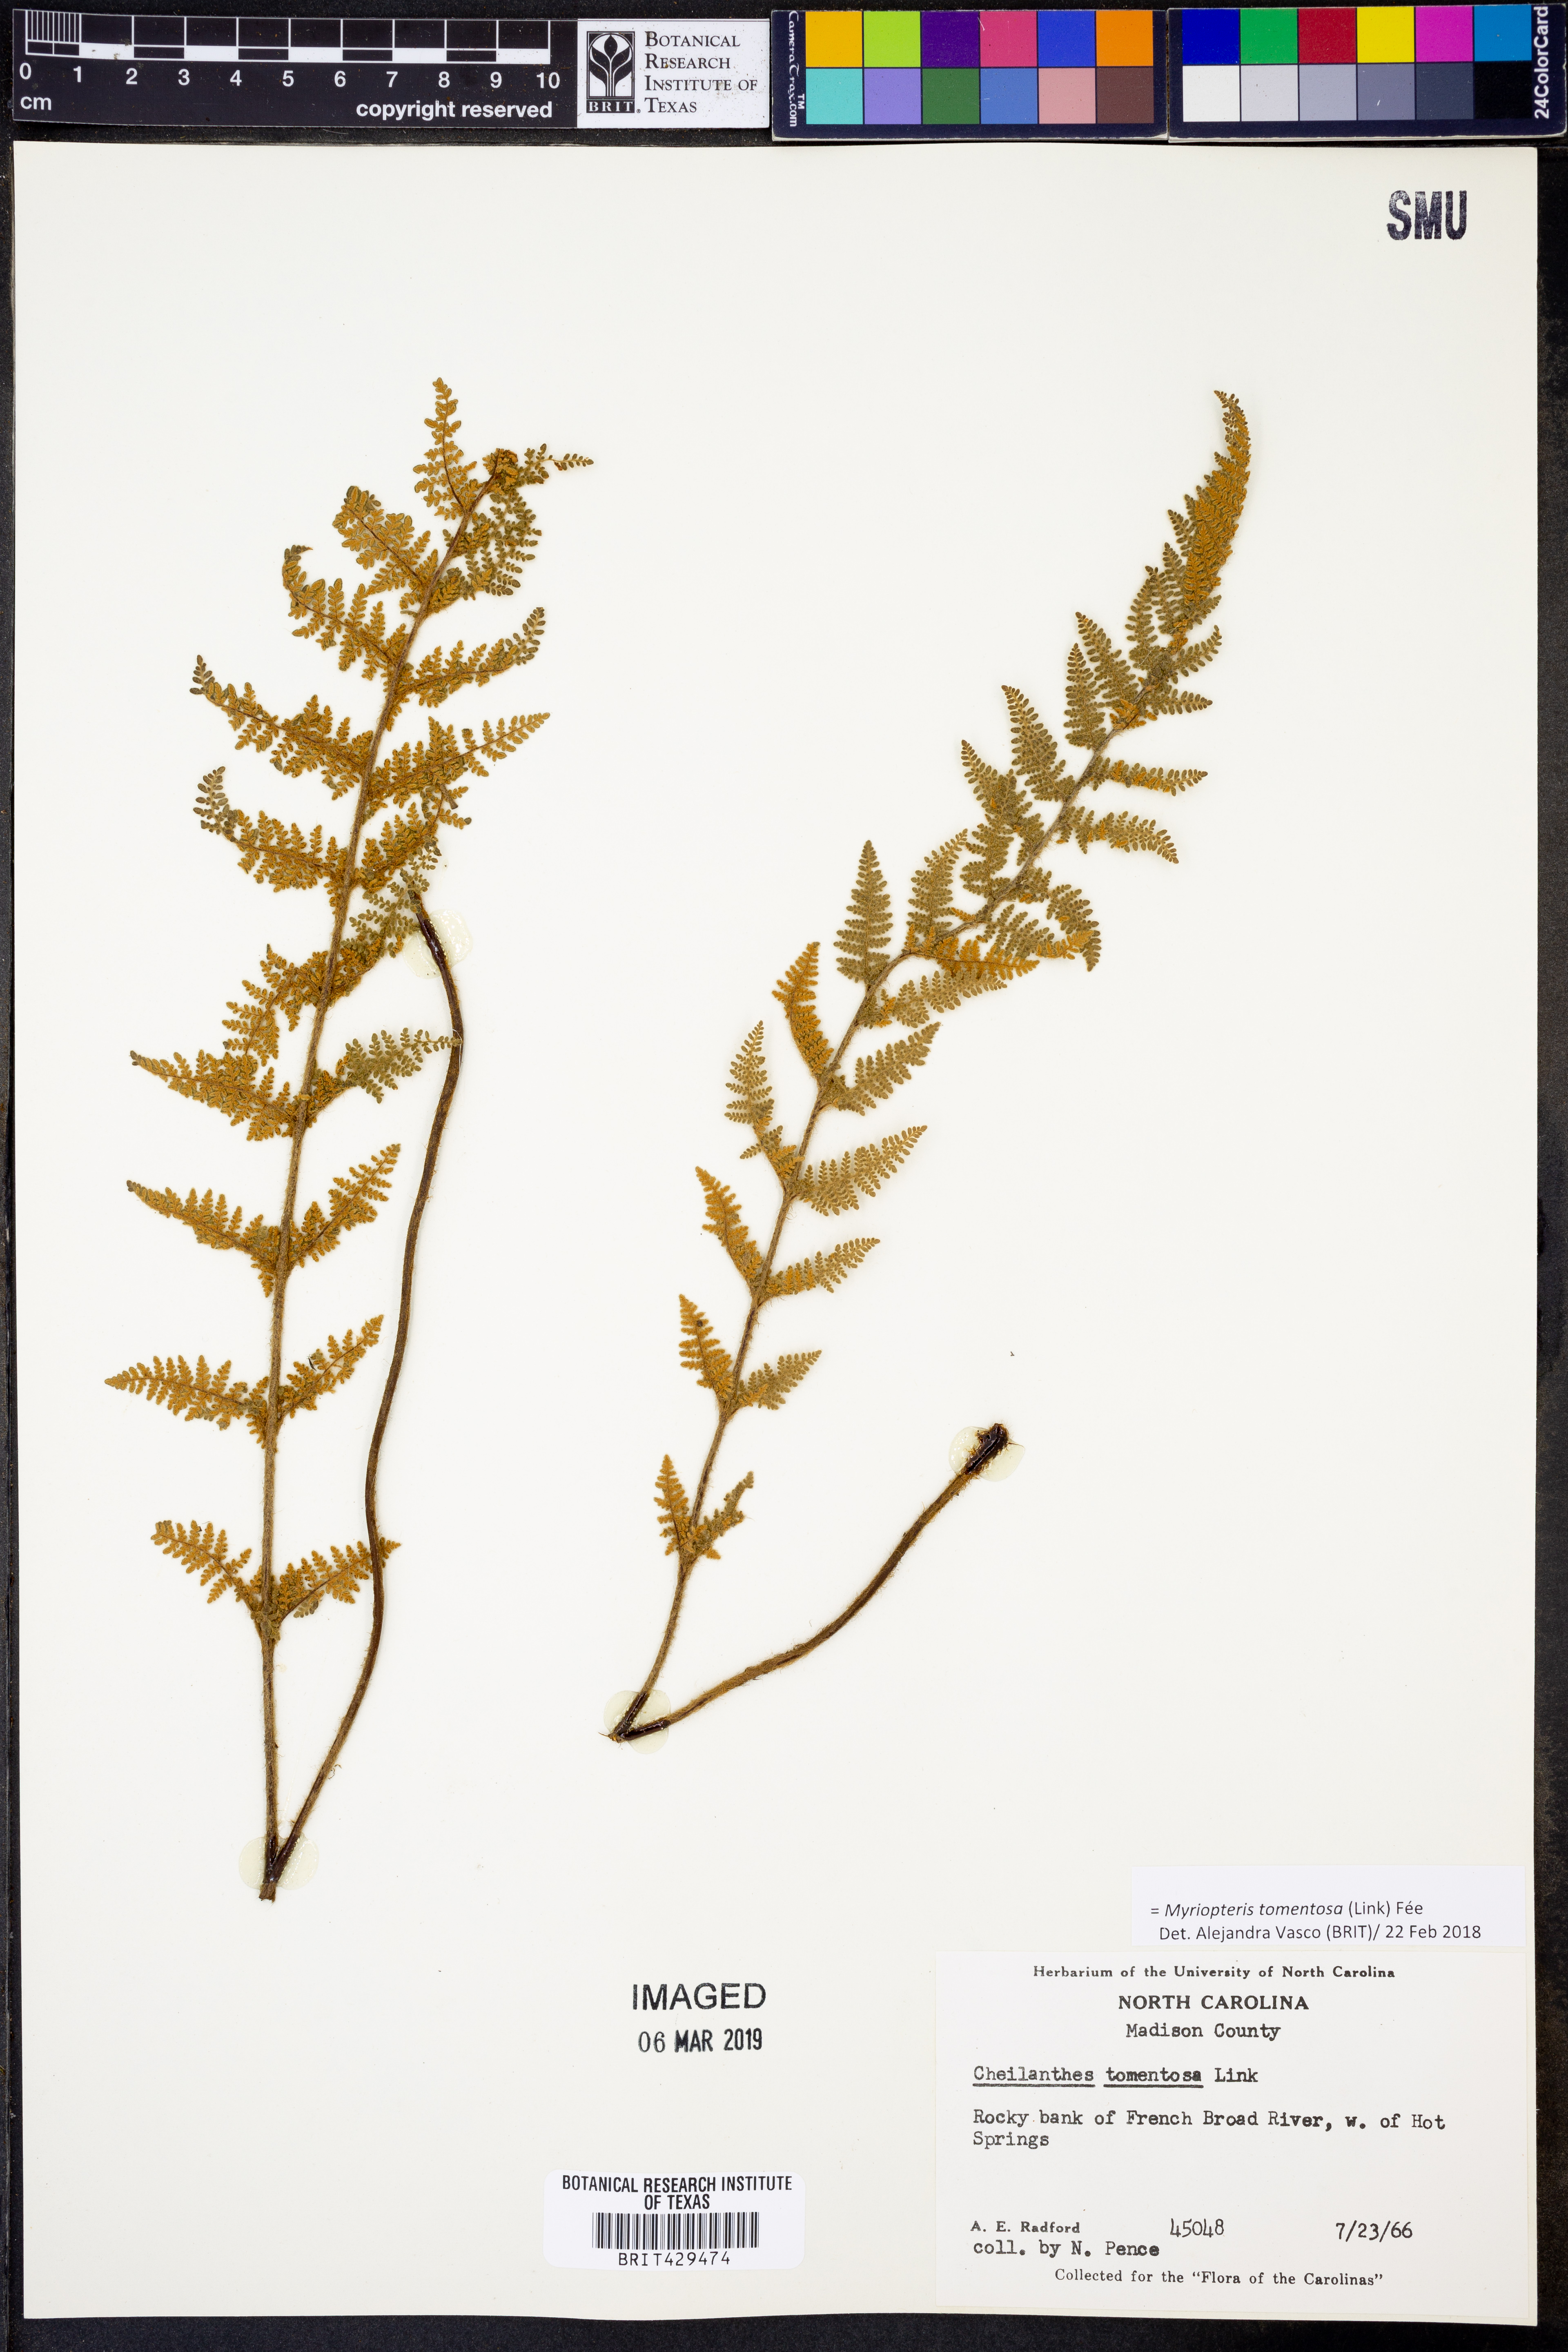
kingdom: Plantae
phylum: Tracheophyta
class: Polypodiopsida
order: Polypodiales
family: Pteridaceae
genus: Myriopteris
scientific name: Myriopteris tomentosa
